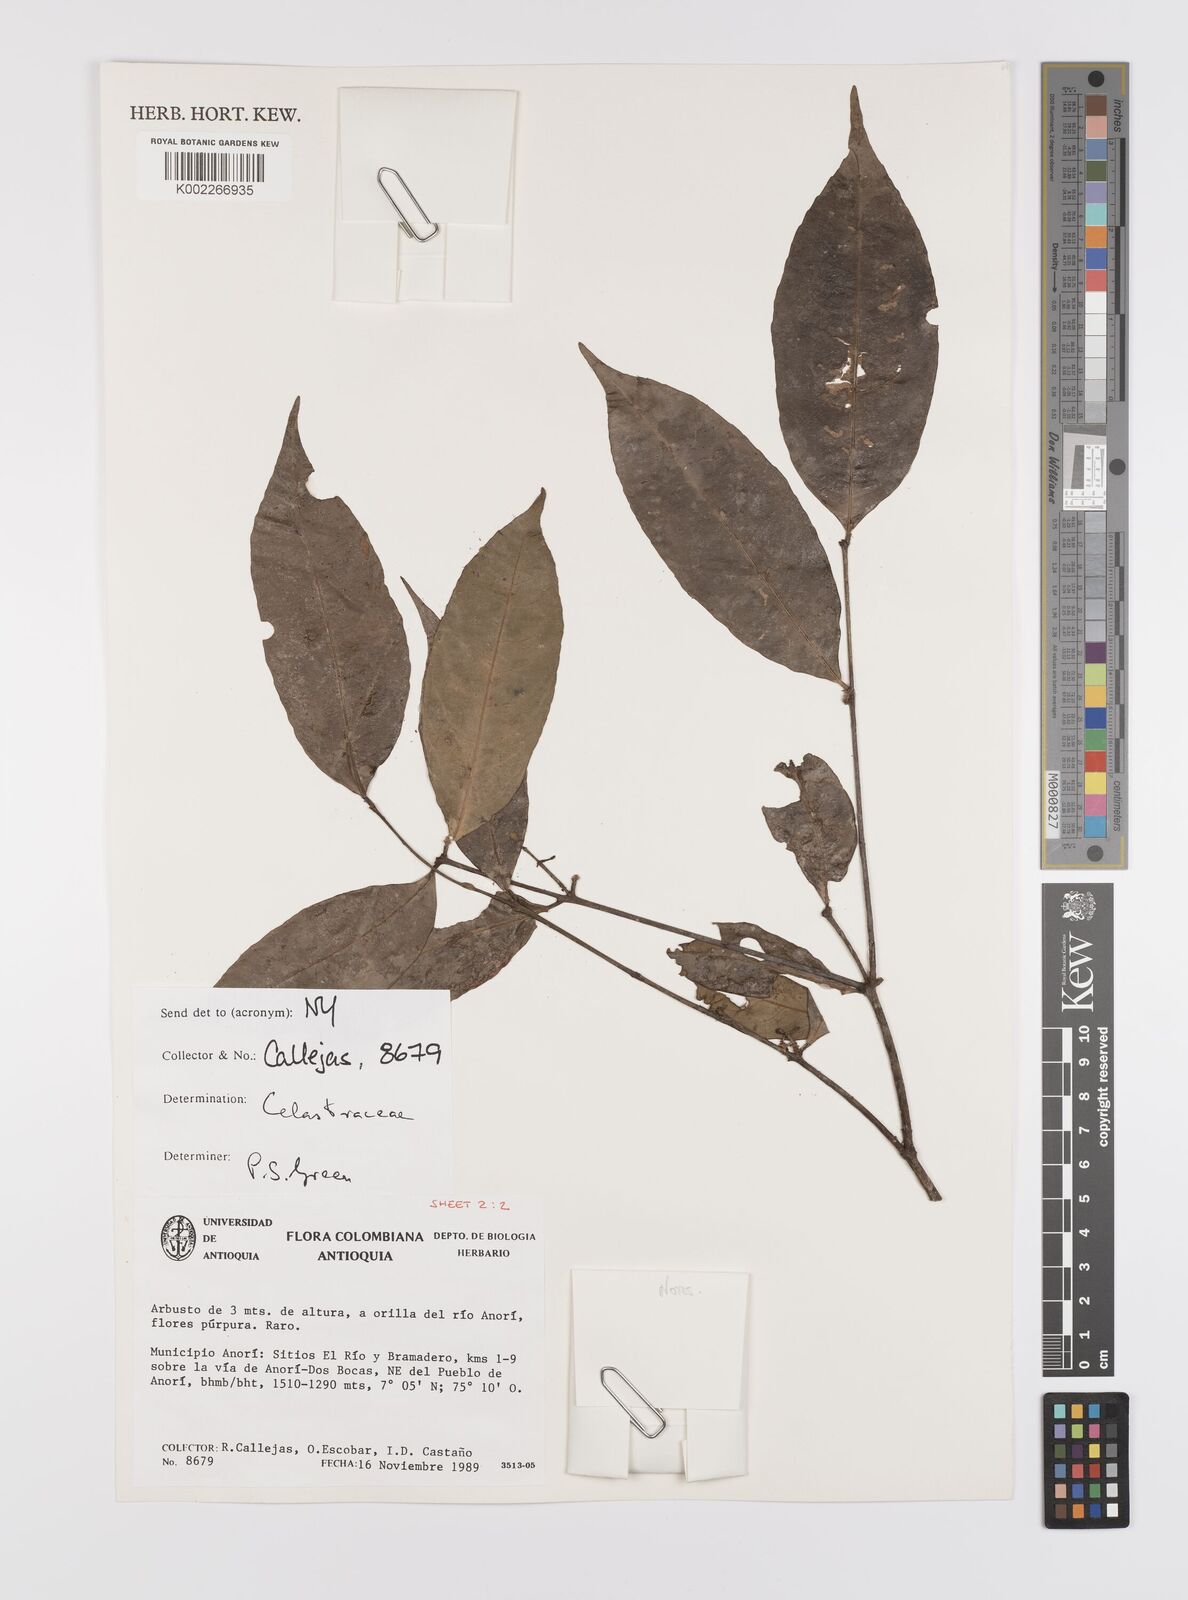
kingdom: Plantae
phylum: Tracheophyta
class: Magnoliopsida
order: Celastrales
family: Celastraceae
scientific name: Celastraceae
